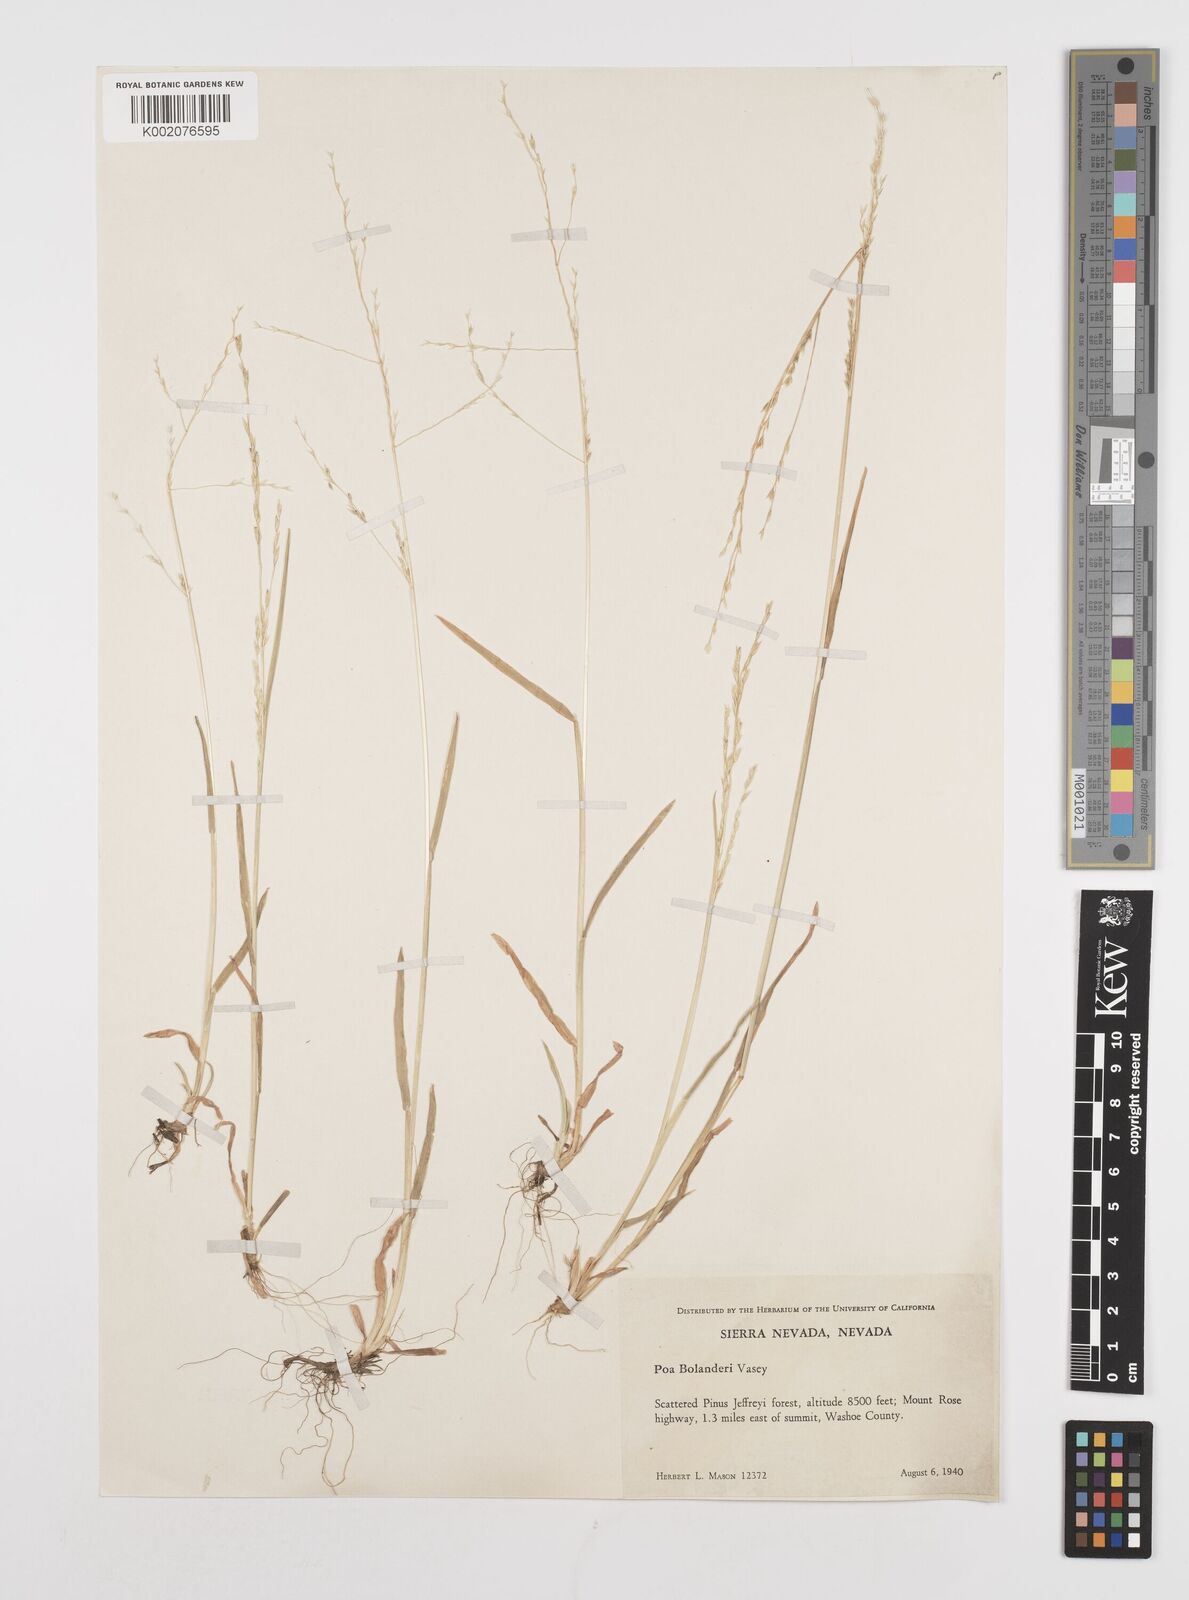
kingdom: Plantae
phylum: Tracheophyta
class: Liliopsida
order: Poales
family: Poaceae
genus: Poa
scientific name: Poa bolanderi
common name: Bolander's bluegrass
